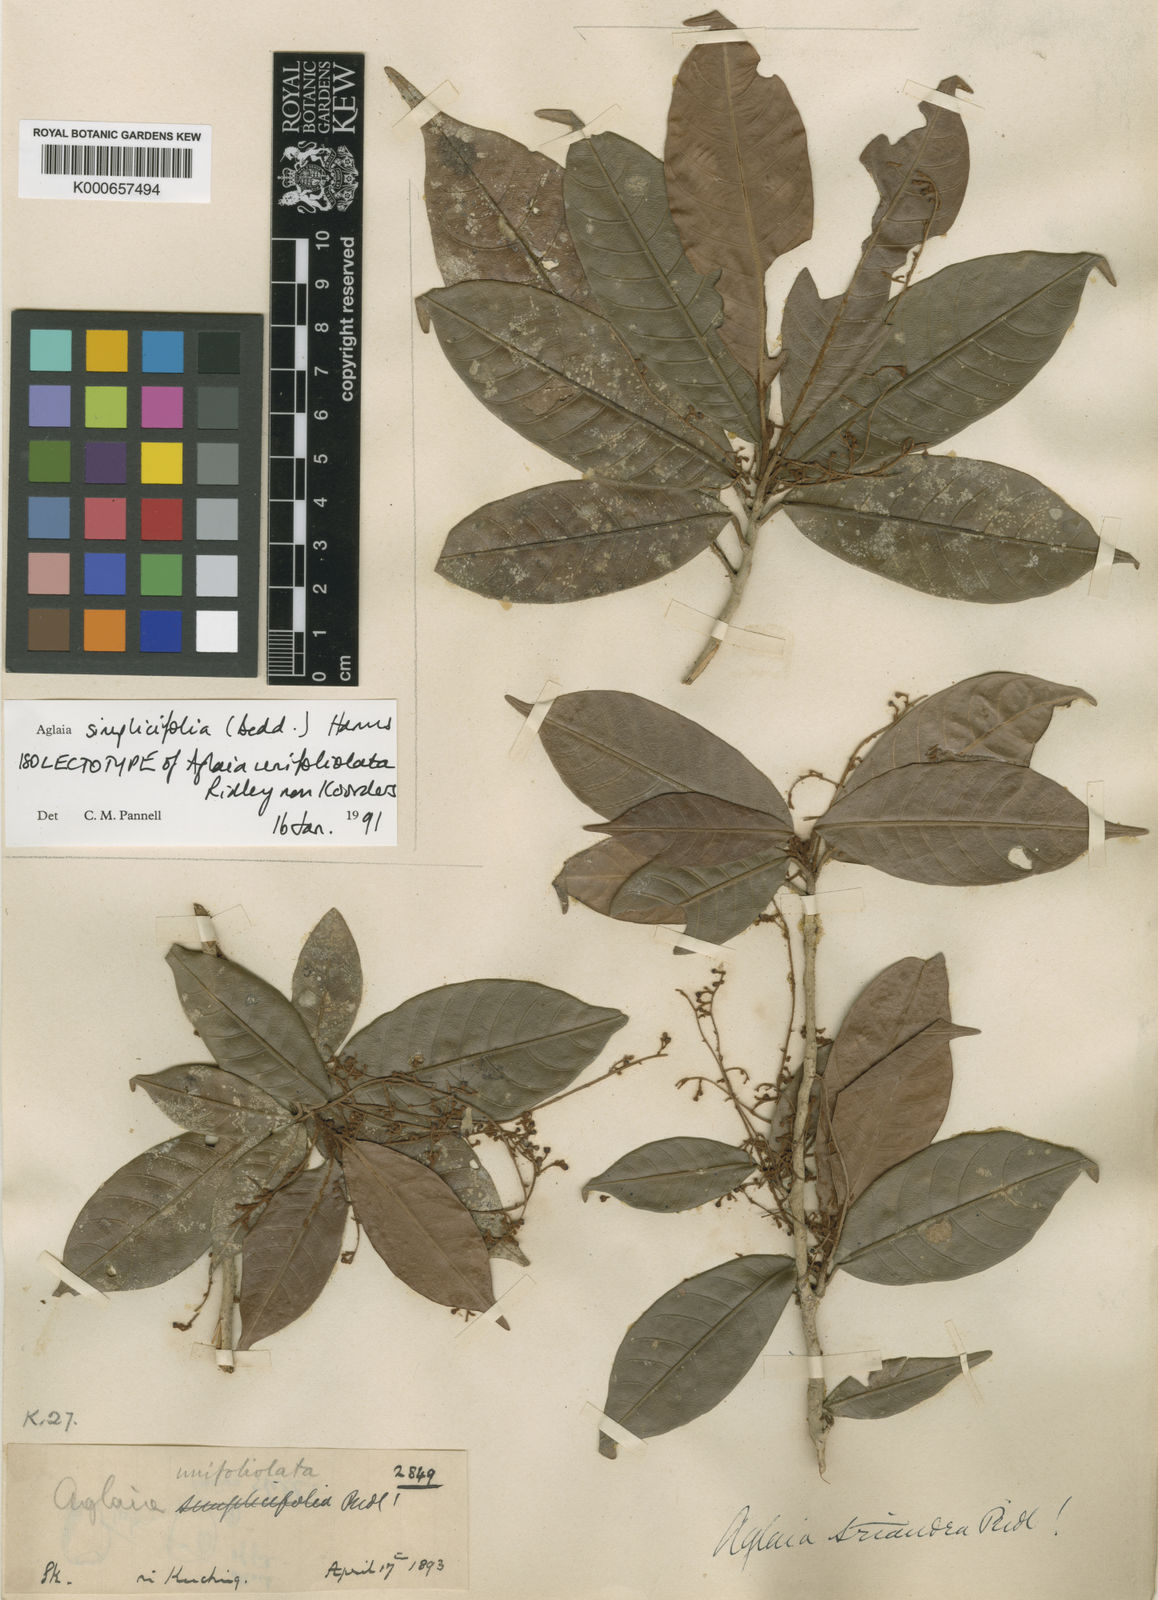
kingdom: Plantae
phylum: Tracheophyta
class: Magnoliopsida
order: Sapindales
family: Meliaceae
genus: Aglaia
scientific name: Aglaia simplicifolia
